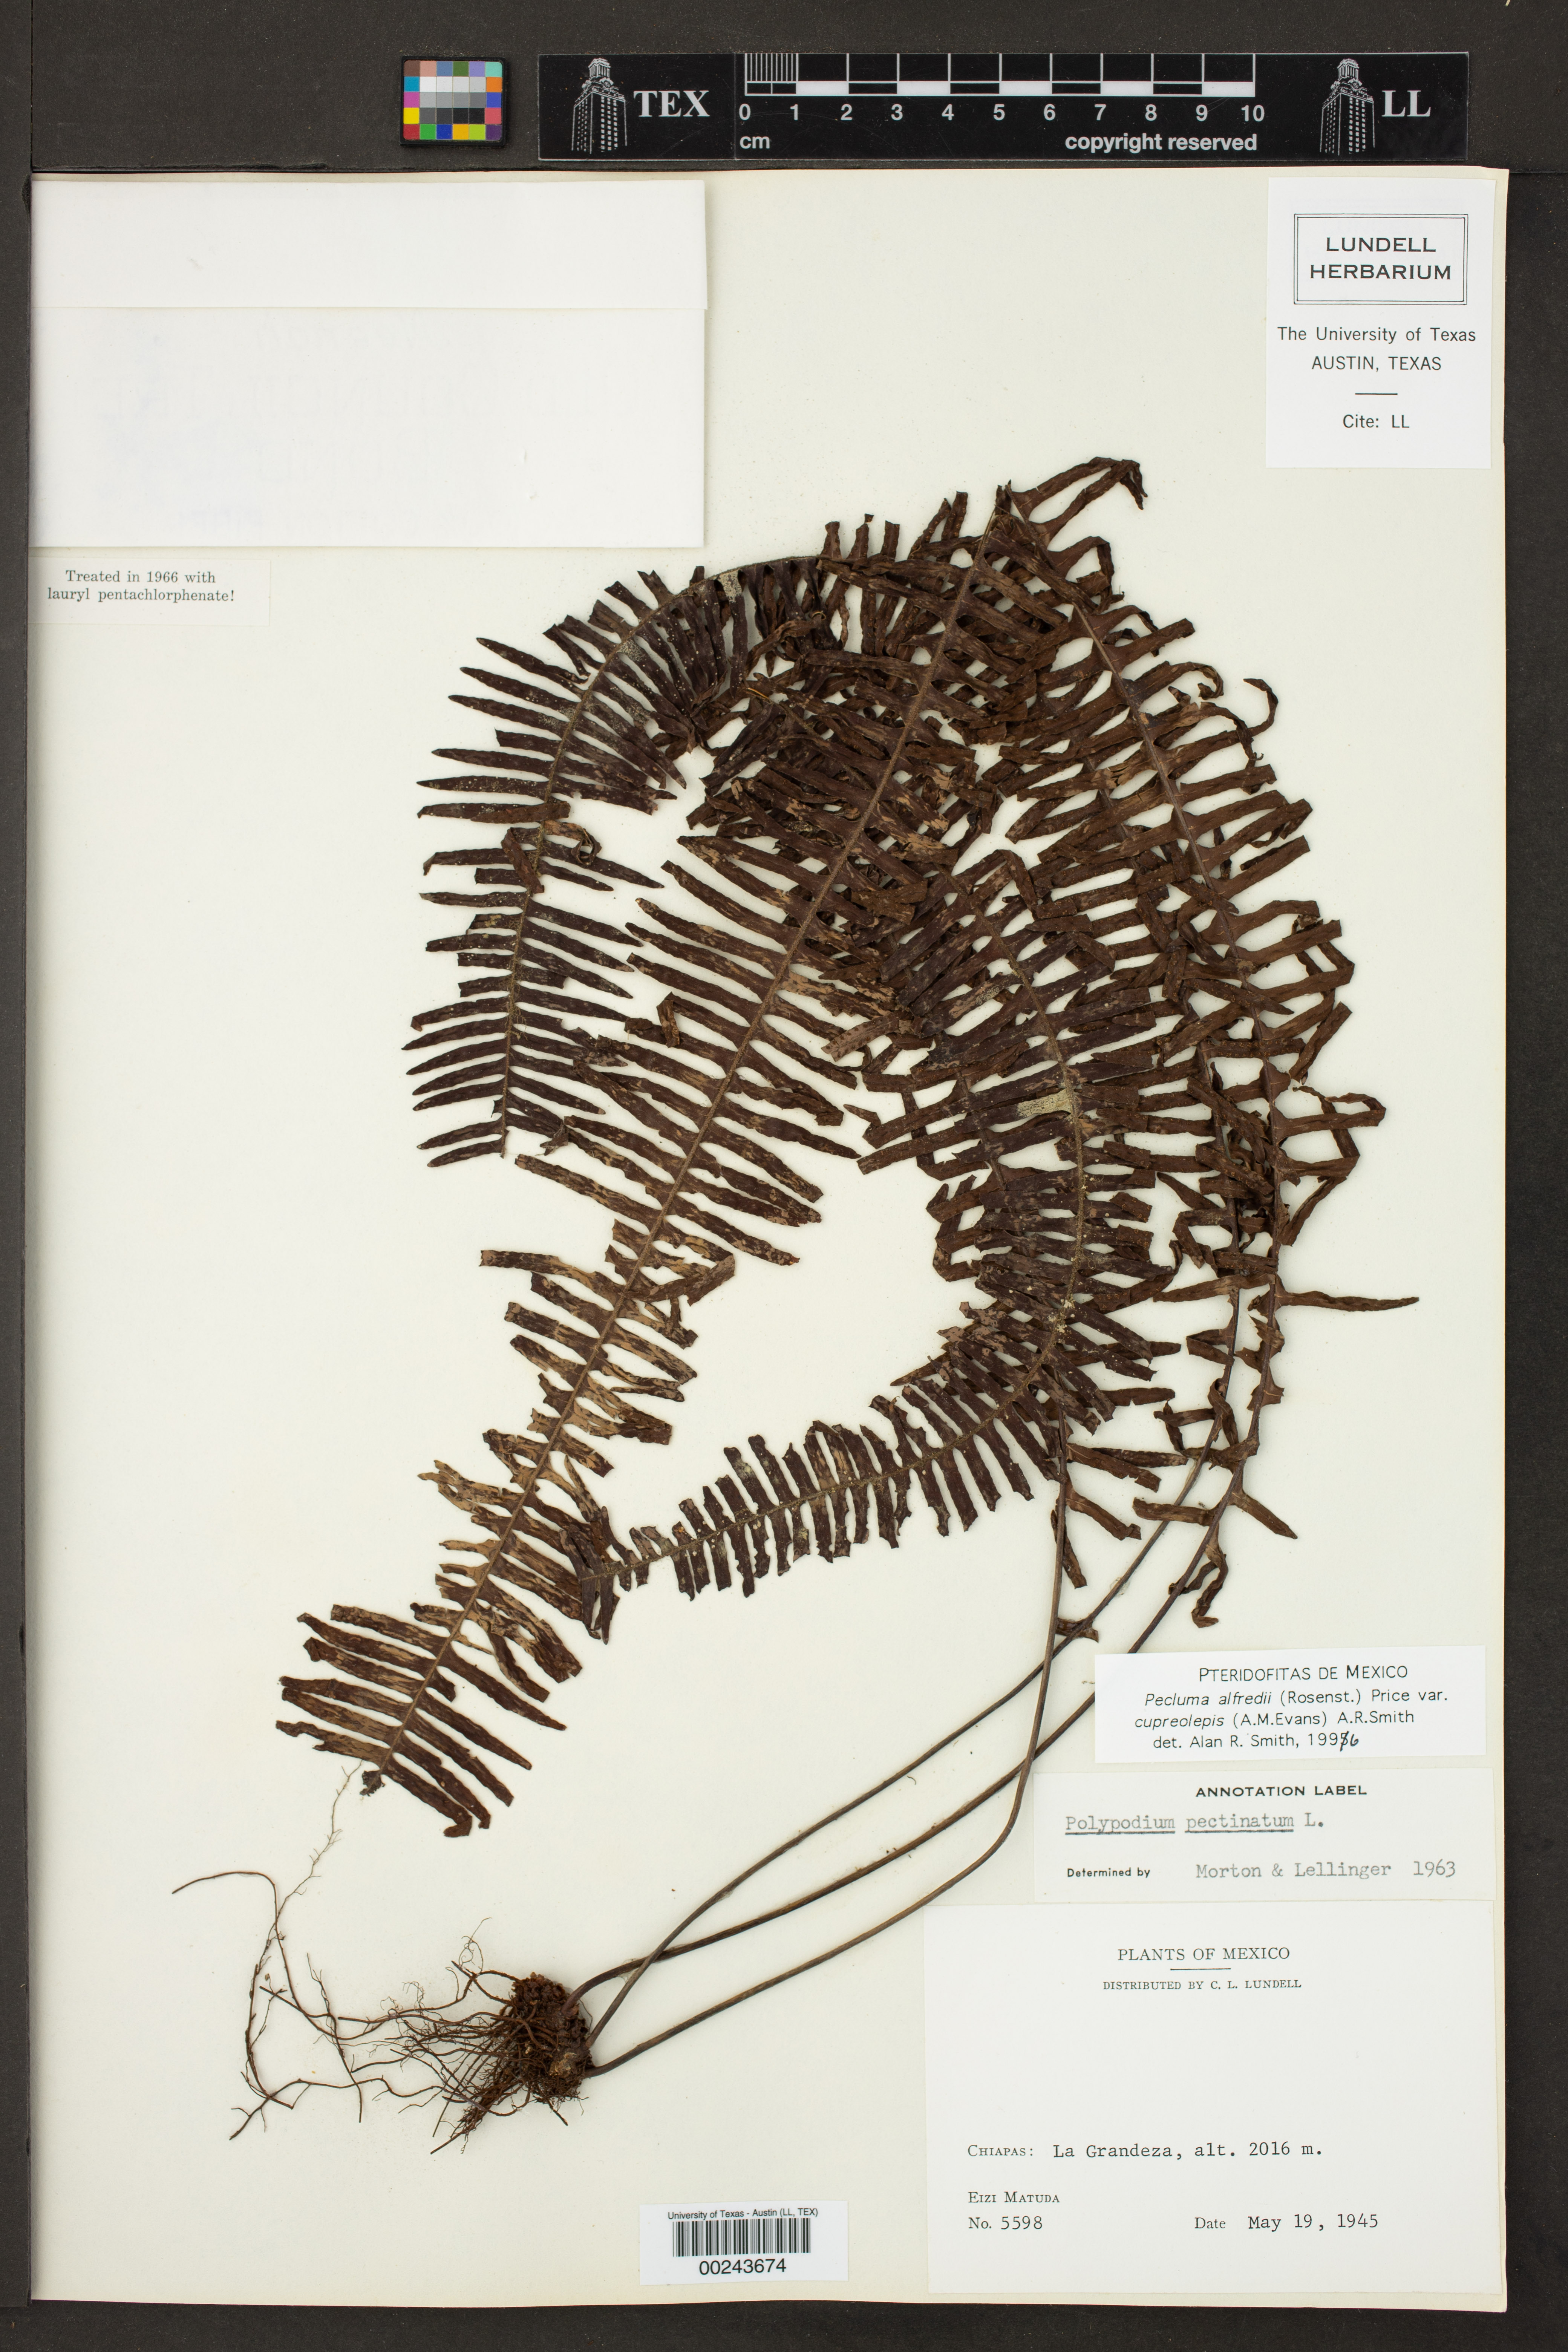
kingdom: Plantae
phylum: Tracheophyta
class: Polypodiopsida
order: Polypodiales
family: Polypodiaceae
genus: Pecluma
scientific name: Pecluma alfredii
